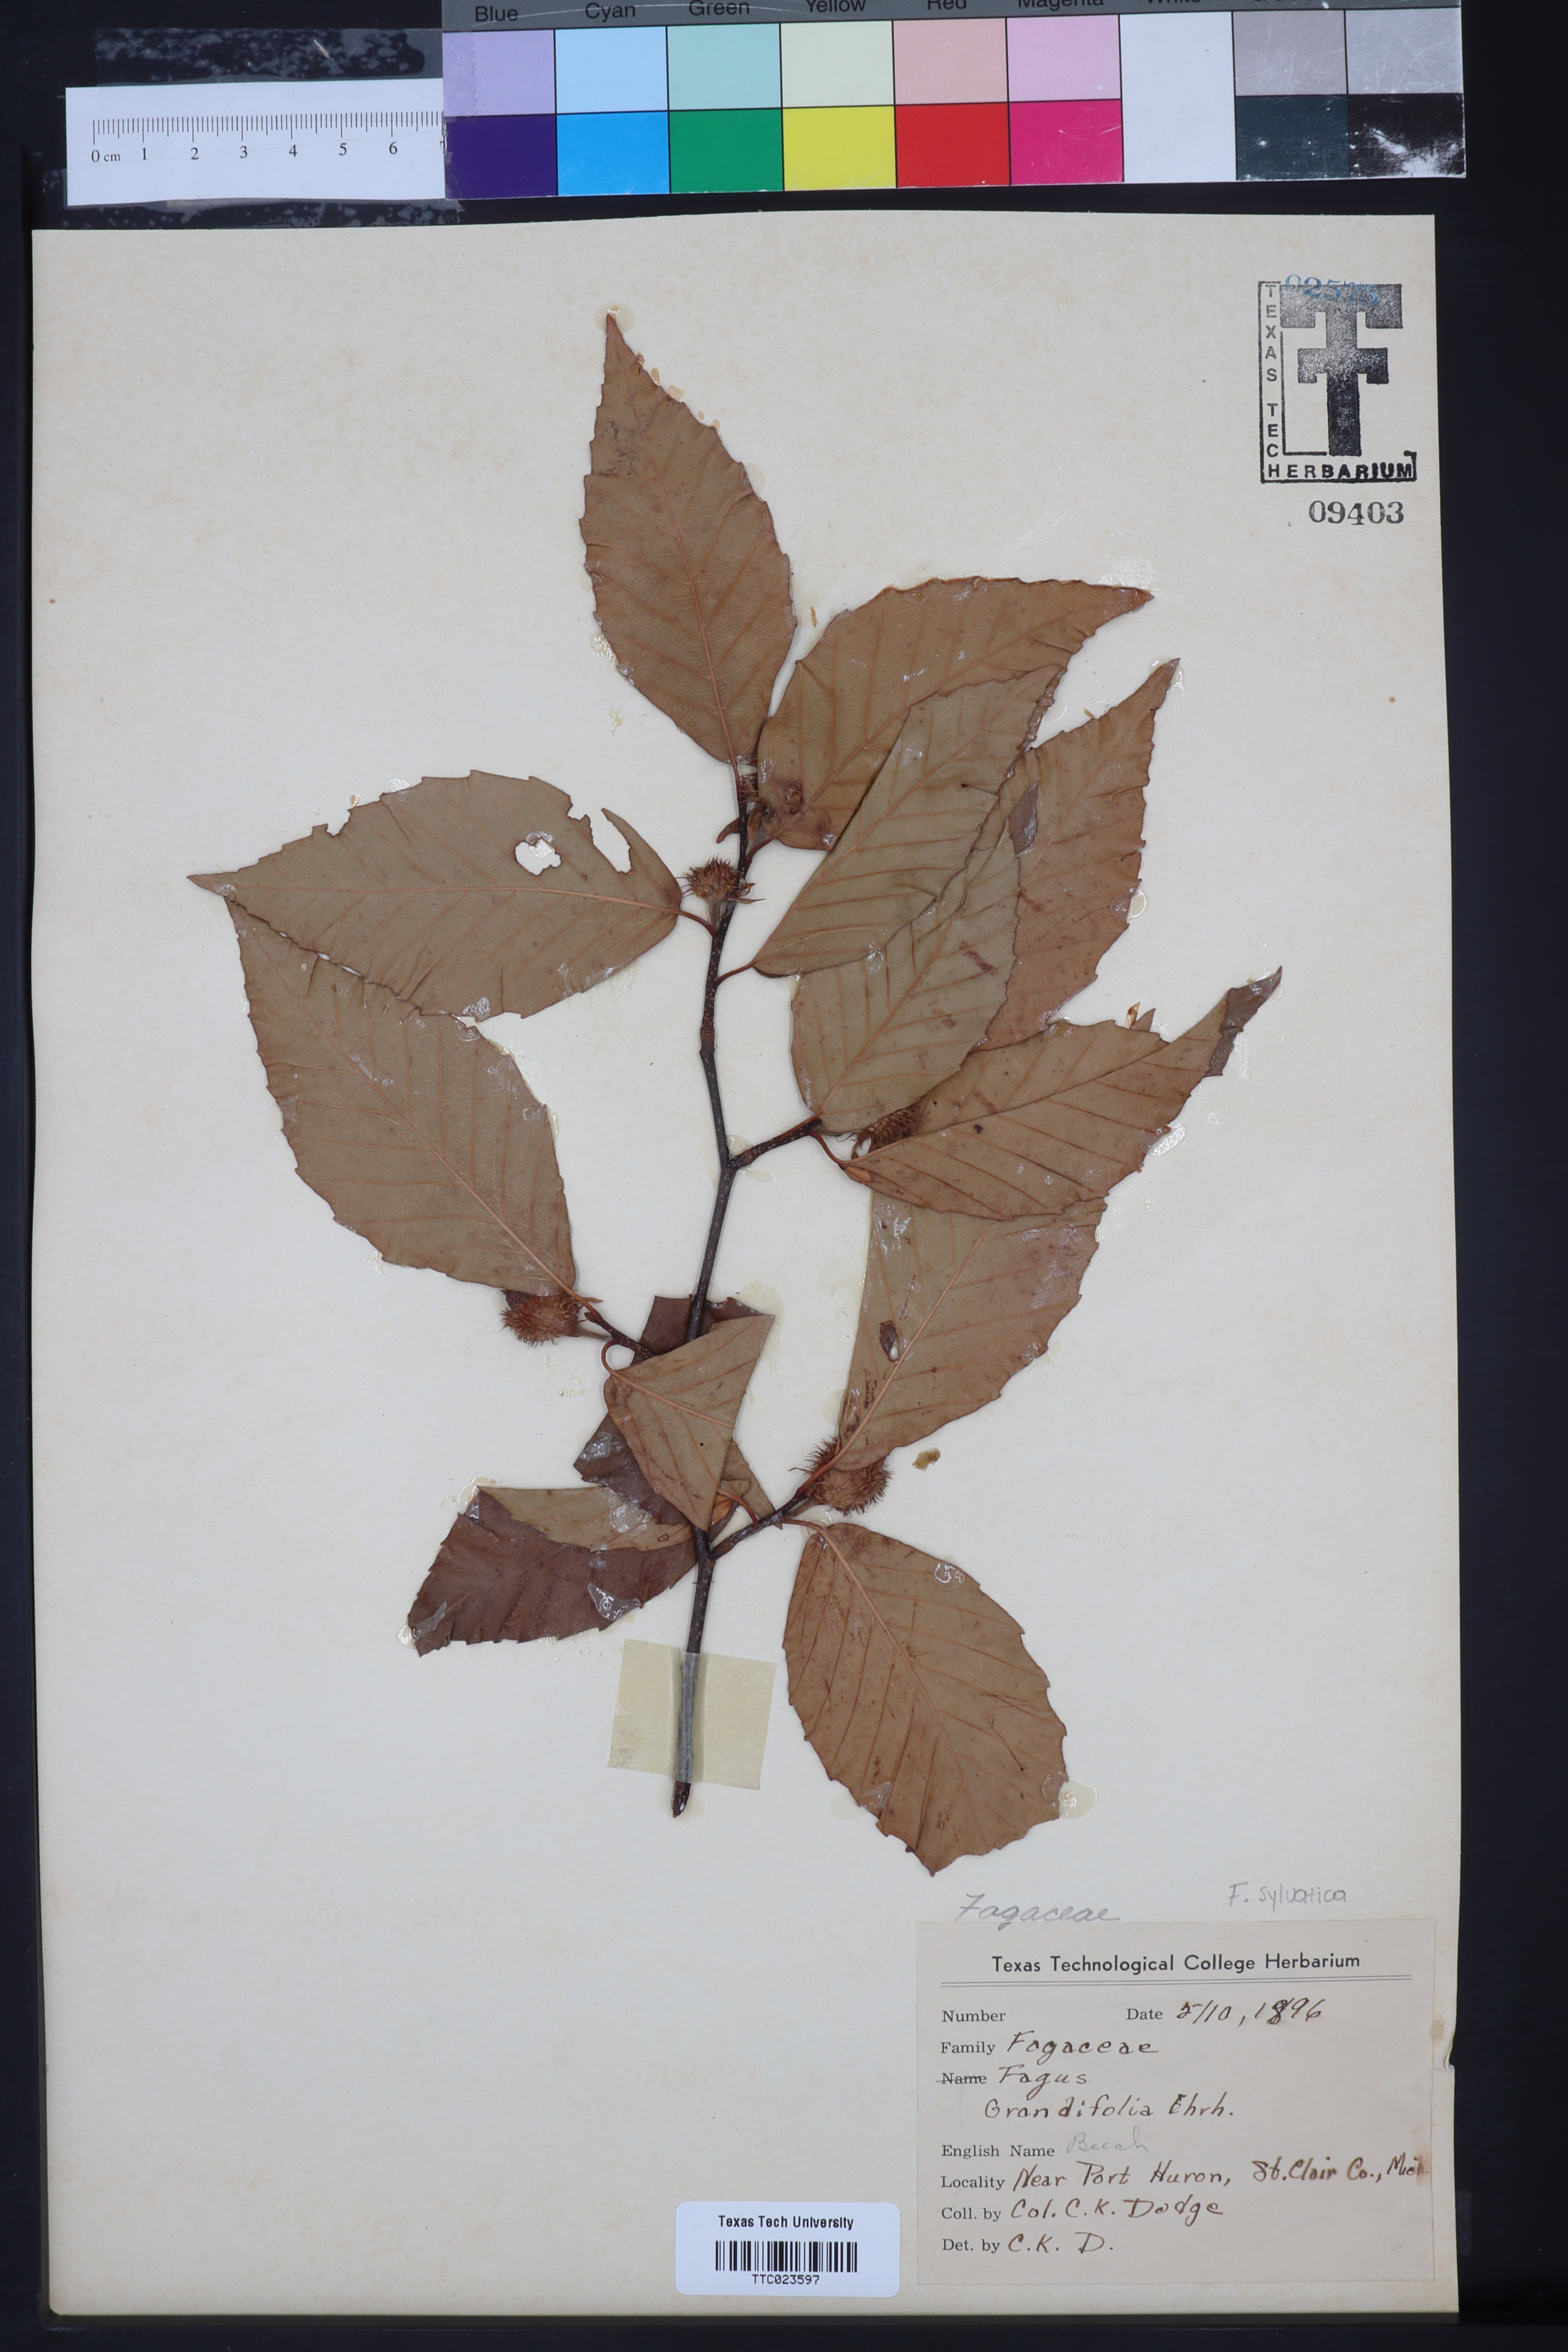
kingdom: Plantae
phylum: Tracheophyta
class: Magnoliopsida
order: Fagales
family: Fagaceae
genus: Fagus
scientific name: Fagus grandifolia
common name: American beech
